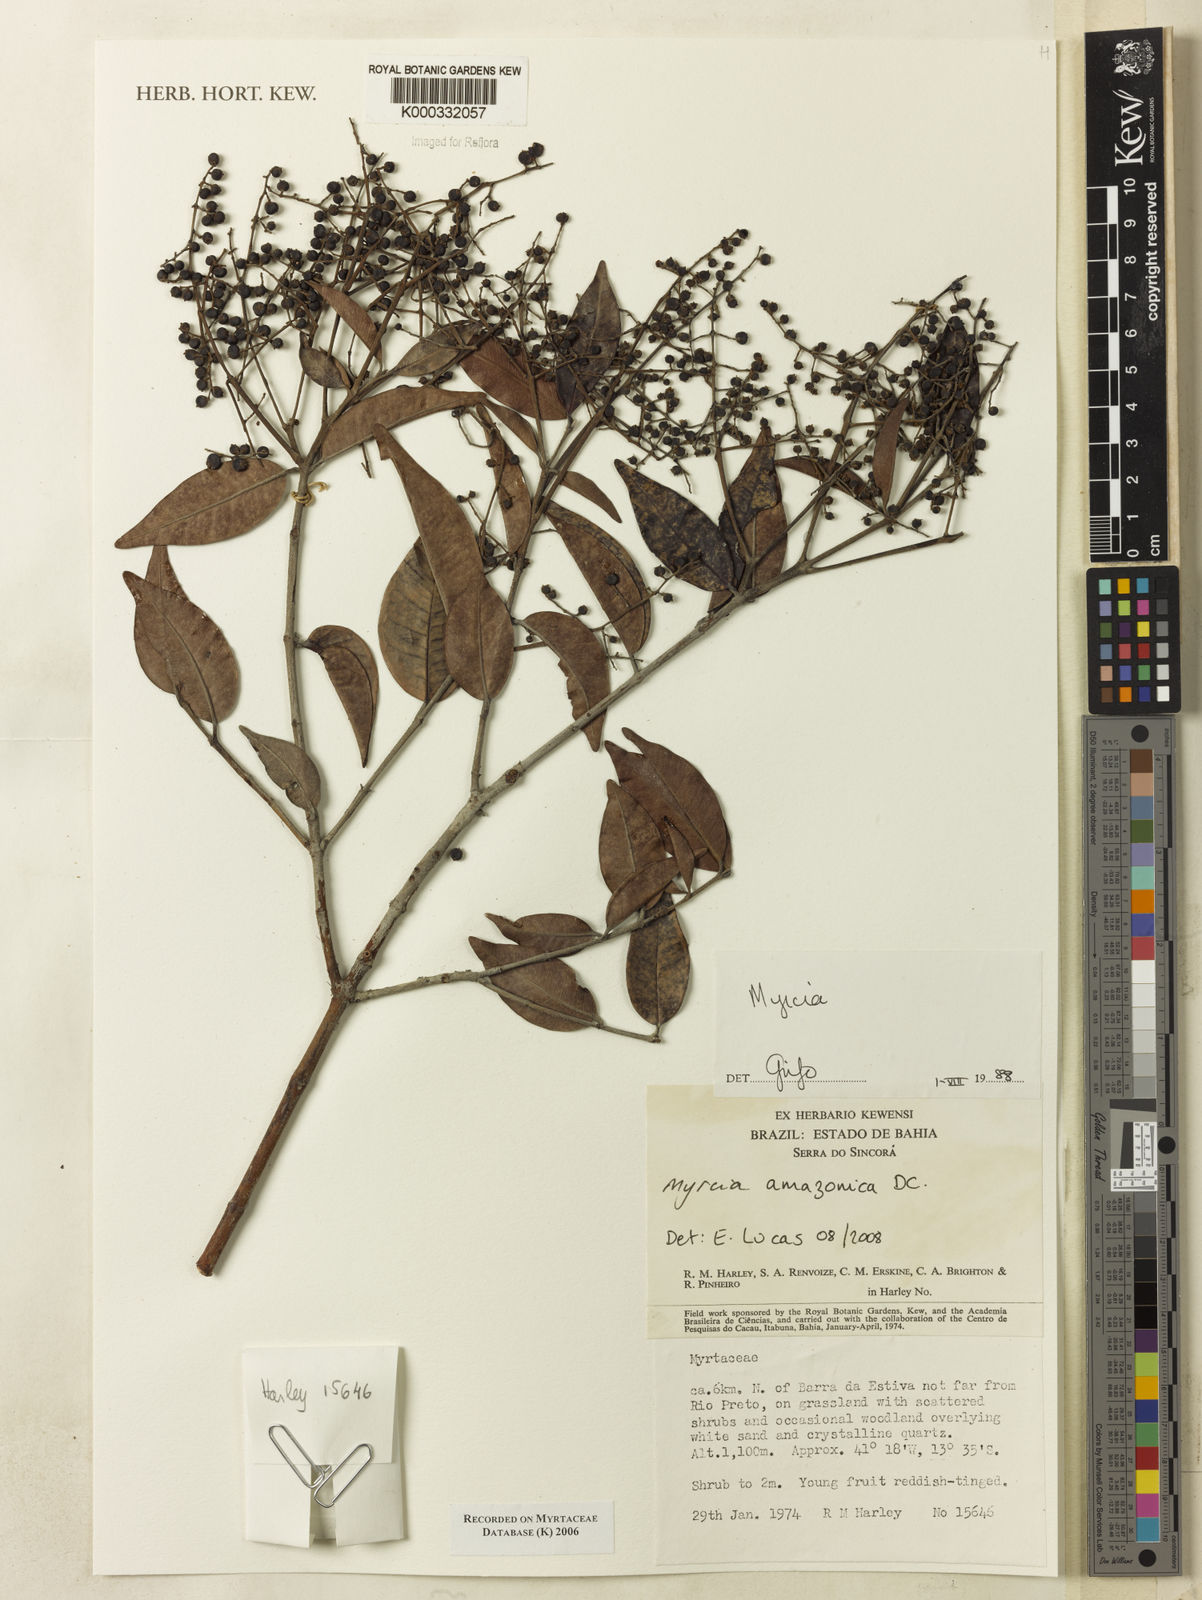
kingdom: Plantae
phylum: Tracheophyta
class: Magnoliopsida
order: Myrtales
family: Myrtaceae
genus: Myrcia
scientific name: Myrcia
